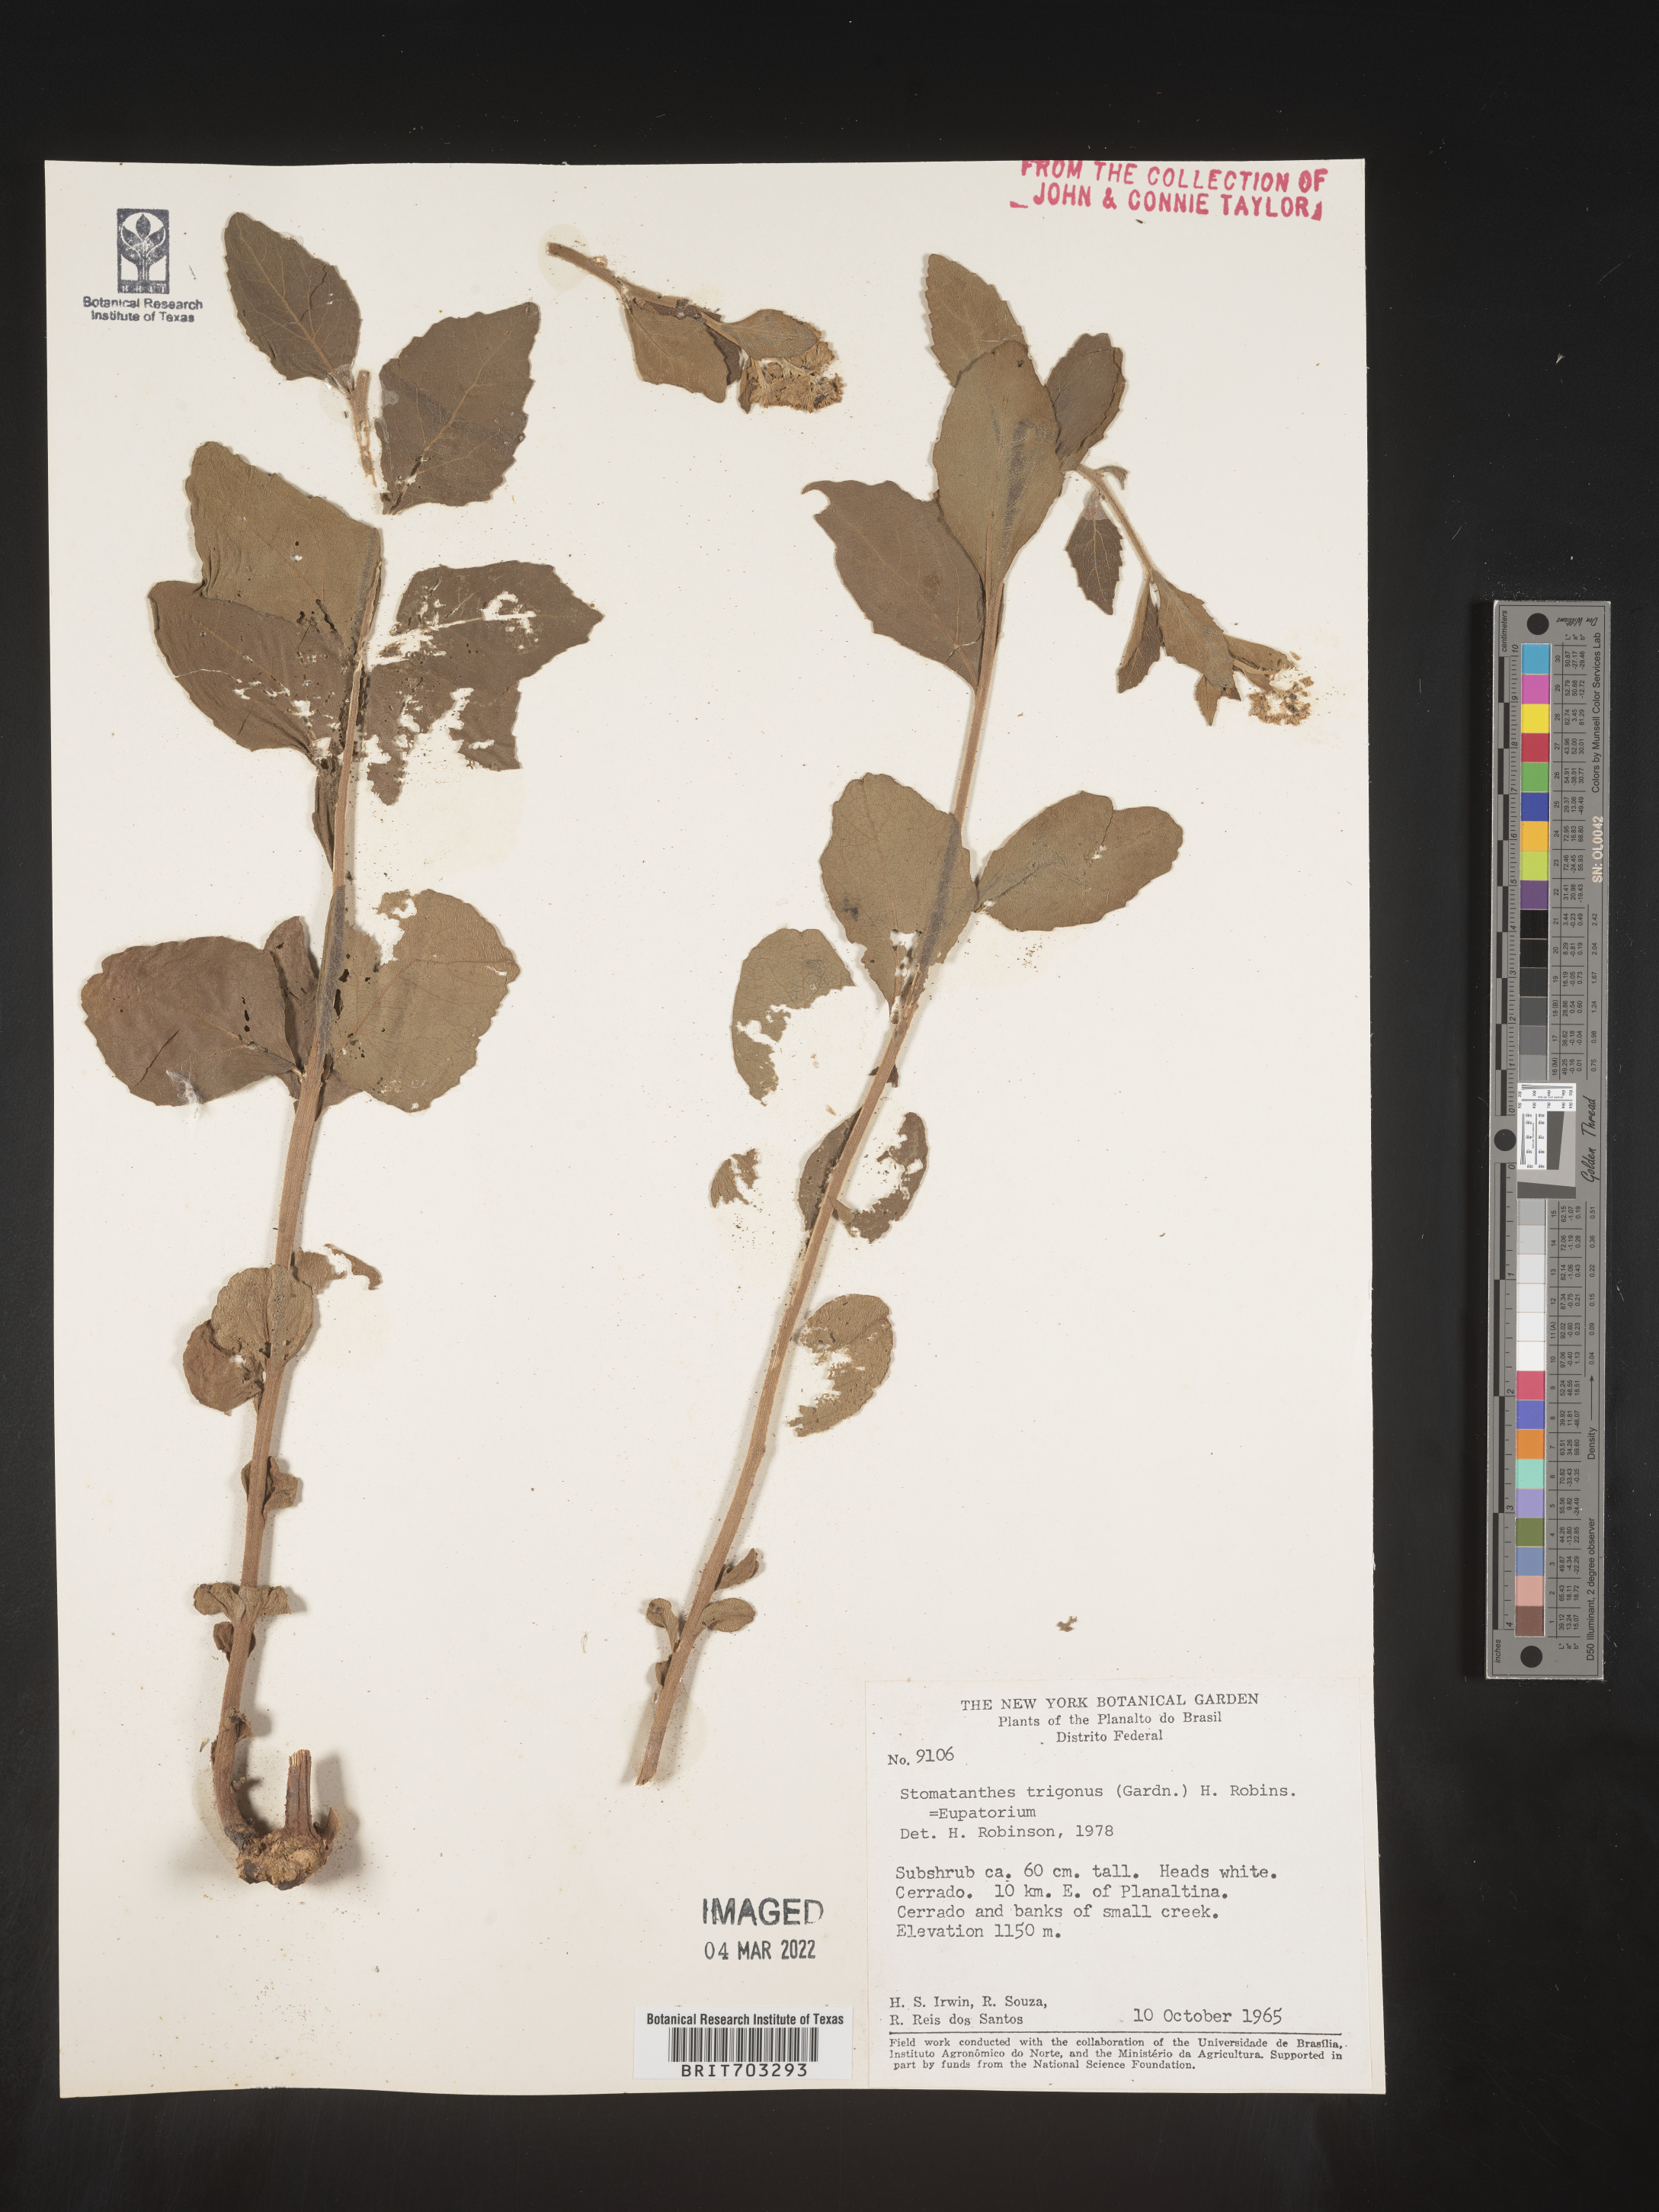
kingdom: Plantae
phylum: Tracheophyta
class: Magnoliopsida
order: Asterales
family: Asteraceae
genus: Eupatorium
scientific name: Eupatorium
